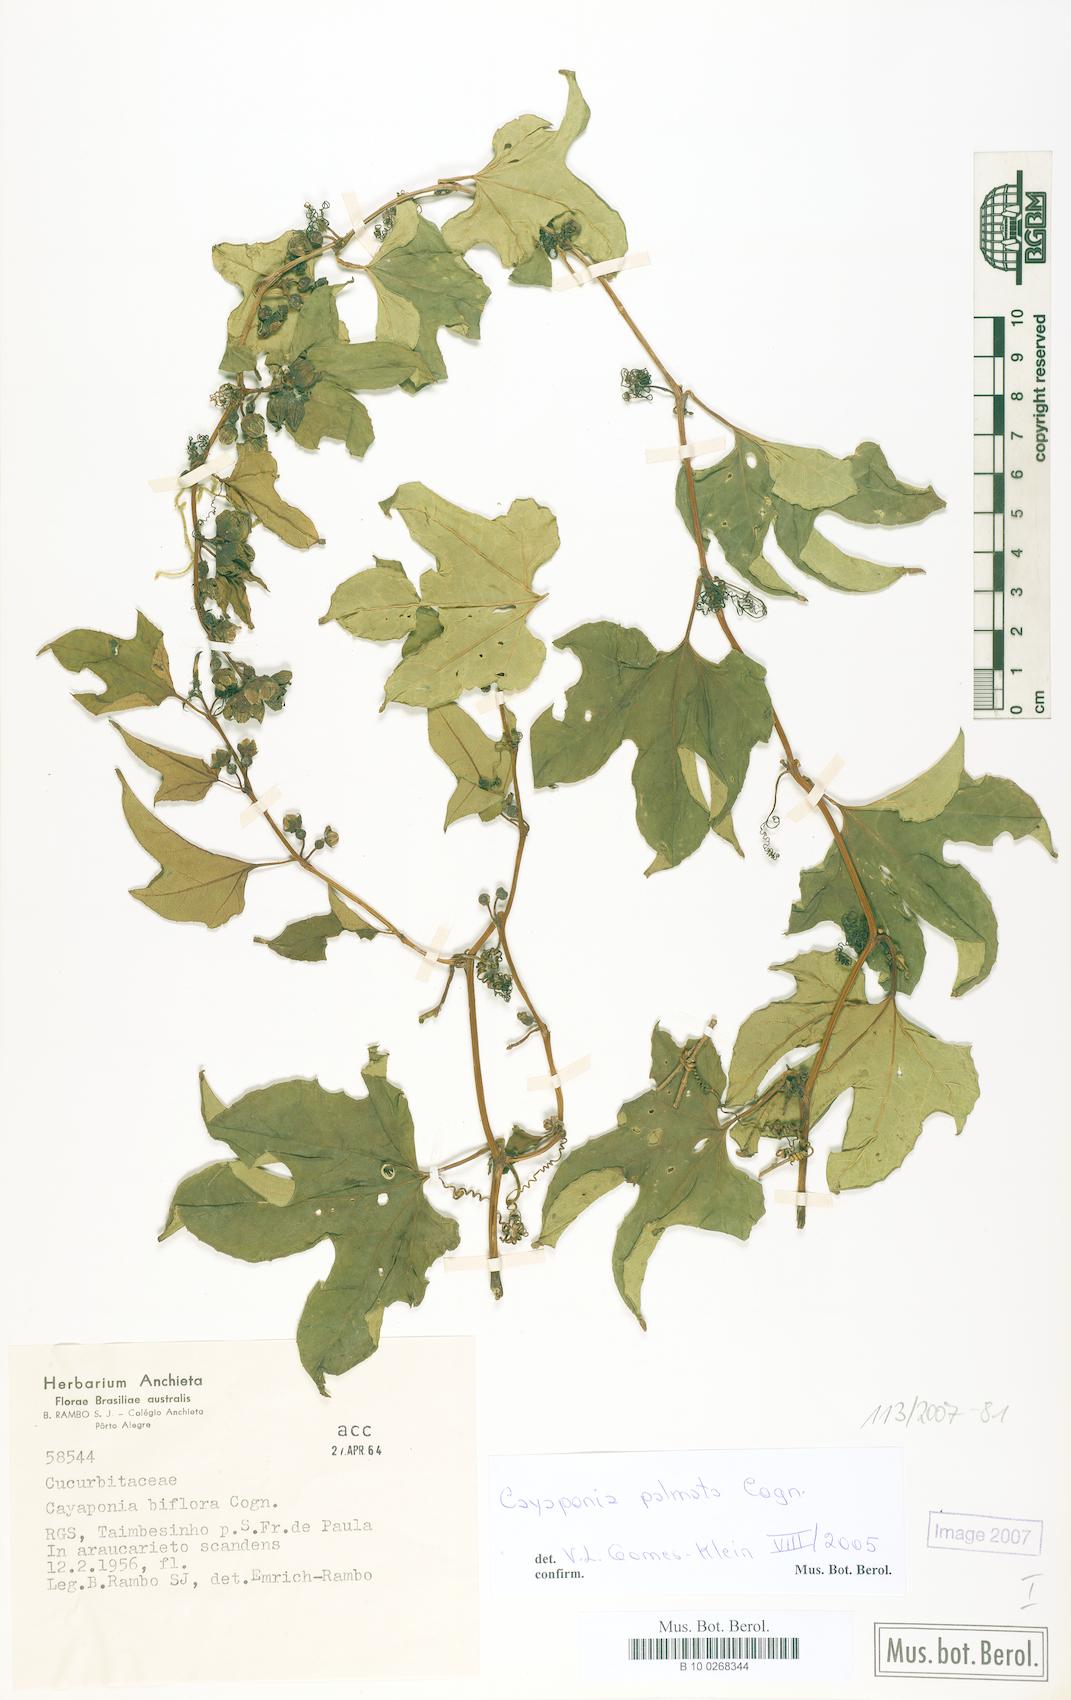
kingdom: Plantae
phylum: Tracheophyta
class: Magnoliopsida
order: Cucurbitales
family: Cucurbitaceae
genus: Cayaponia
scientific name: Cayaponia palmata
